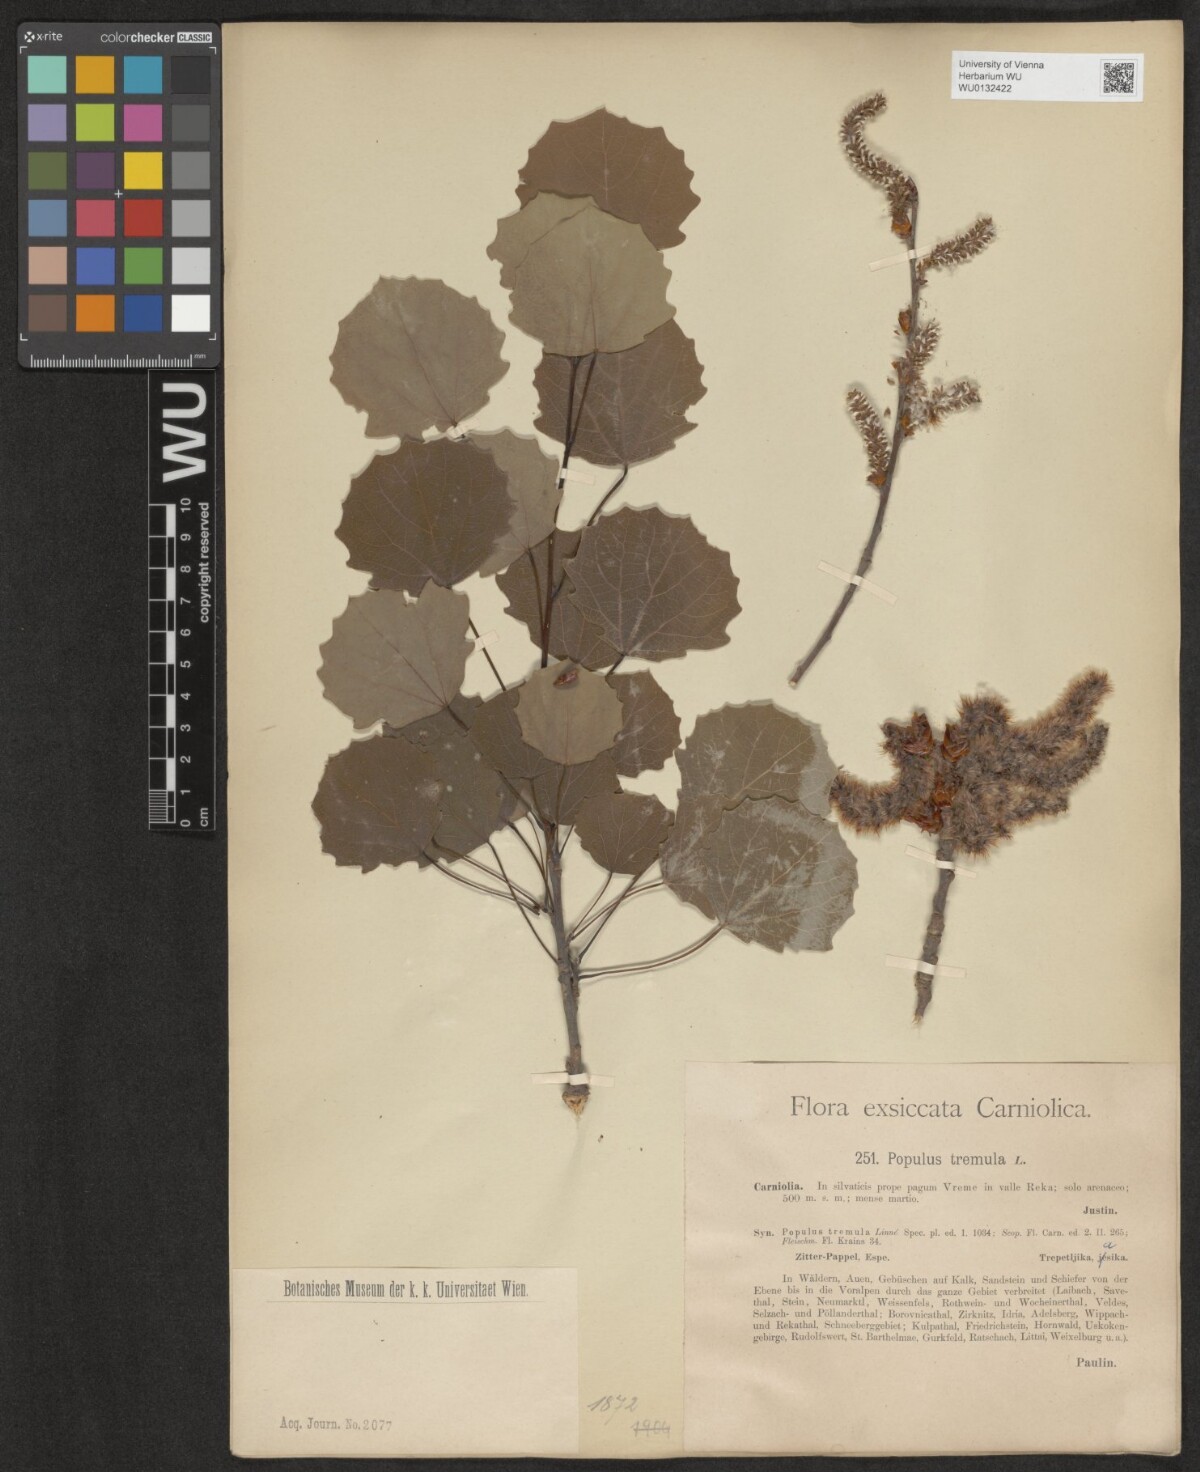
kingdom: Plantae
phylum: Tracheophyta
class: Magnoliopsida
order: Malpighiales
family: Salicaceae
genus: Populus
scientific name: Populus tremula
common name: European aspen
